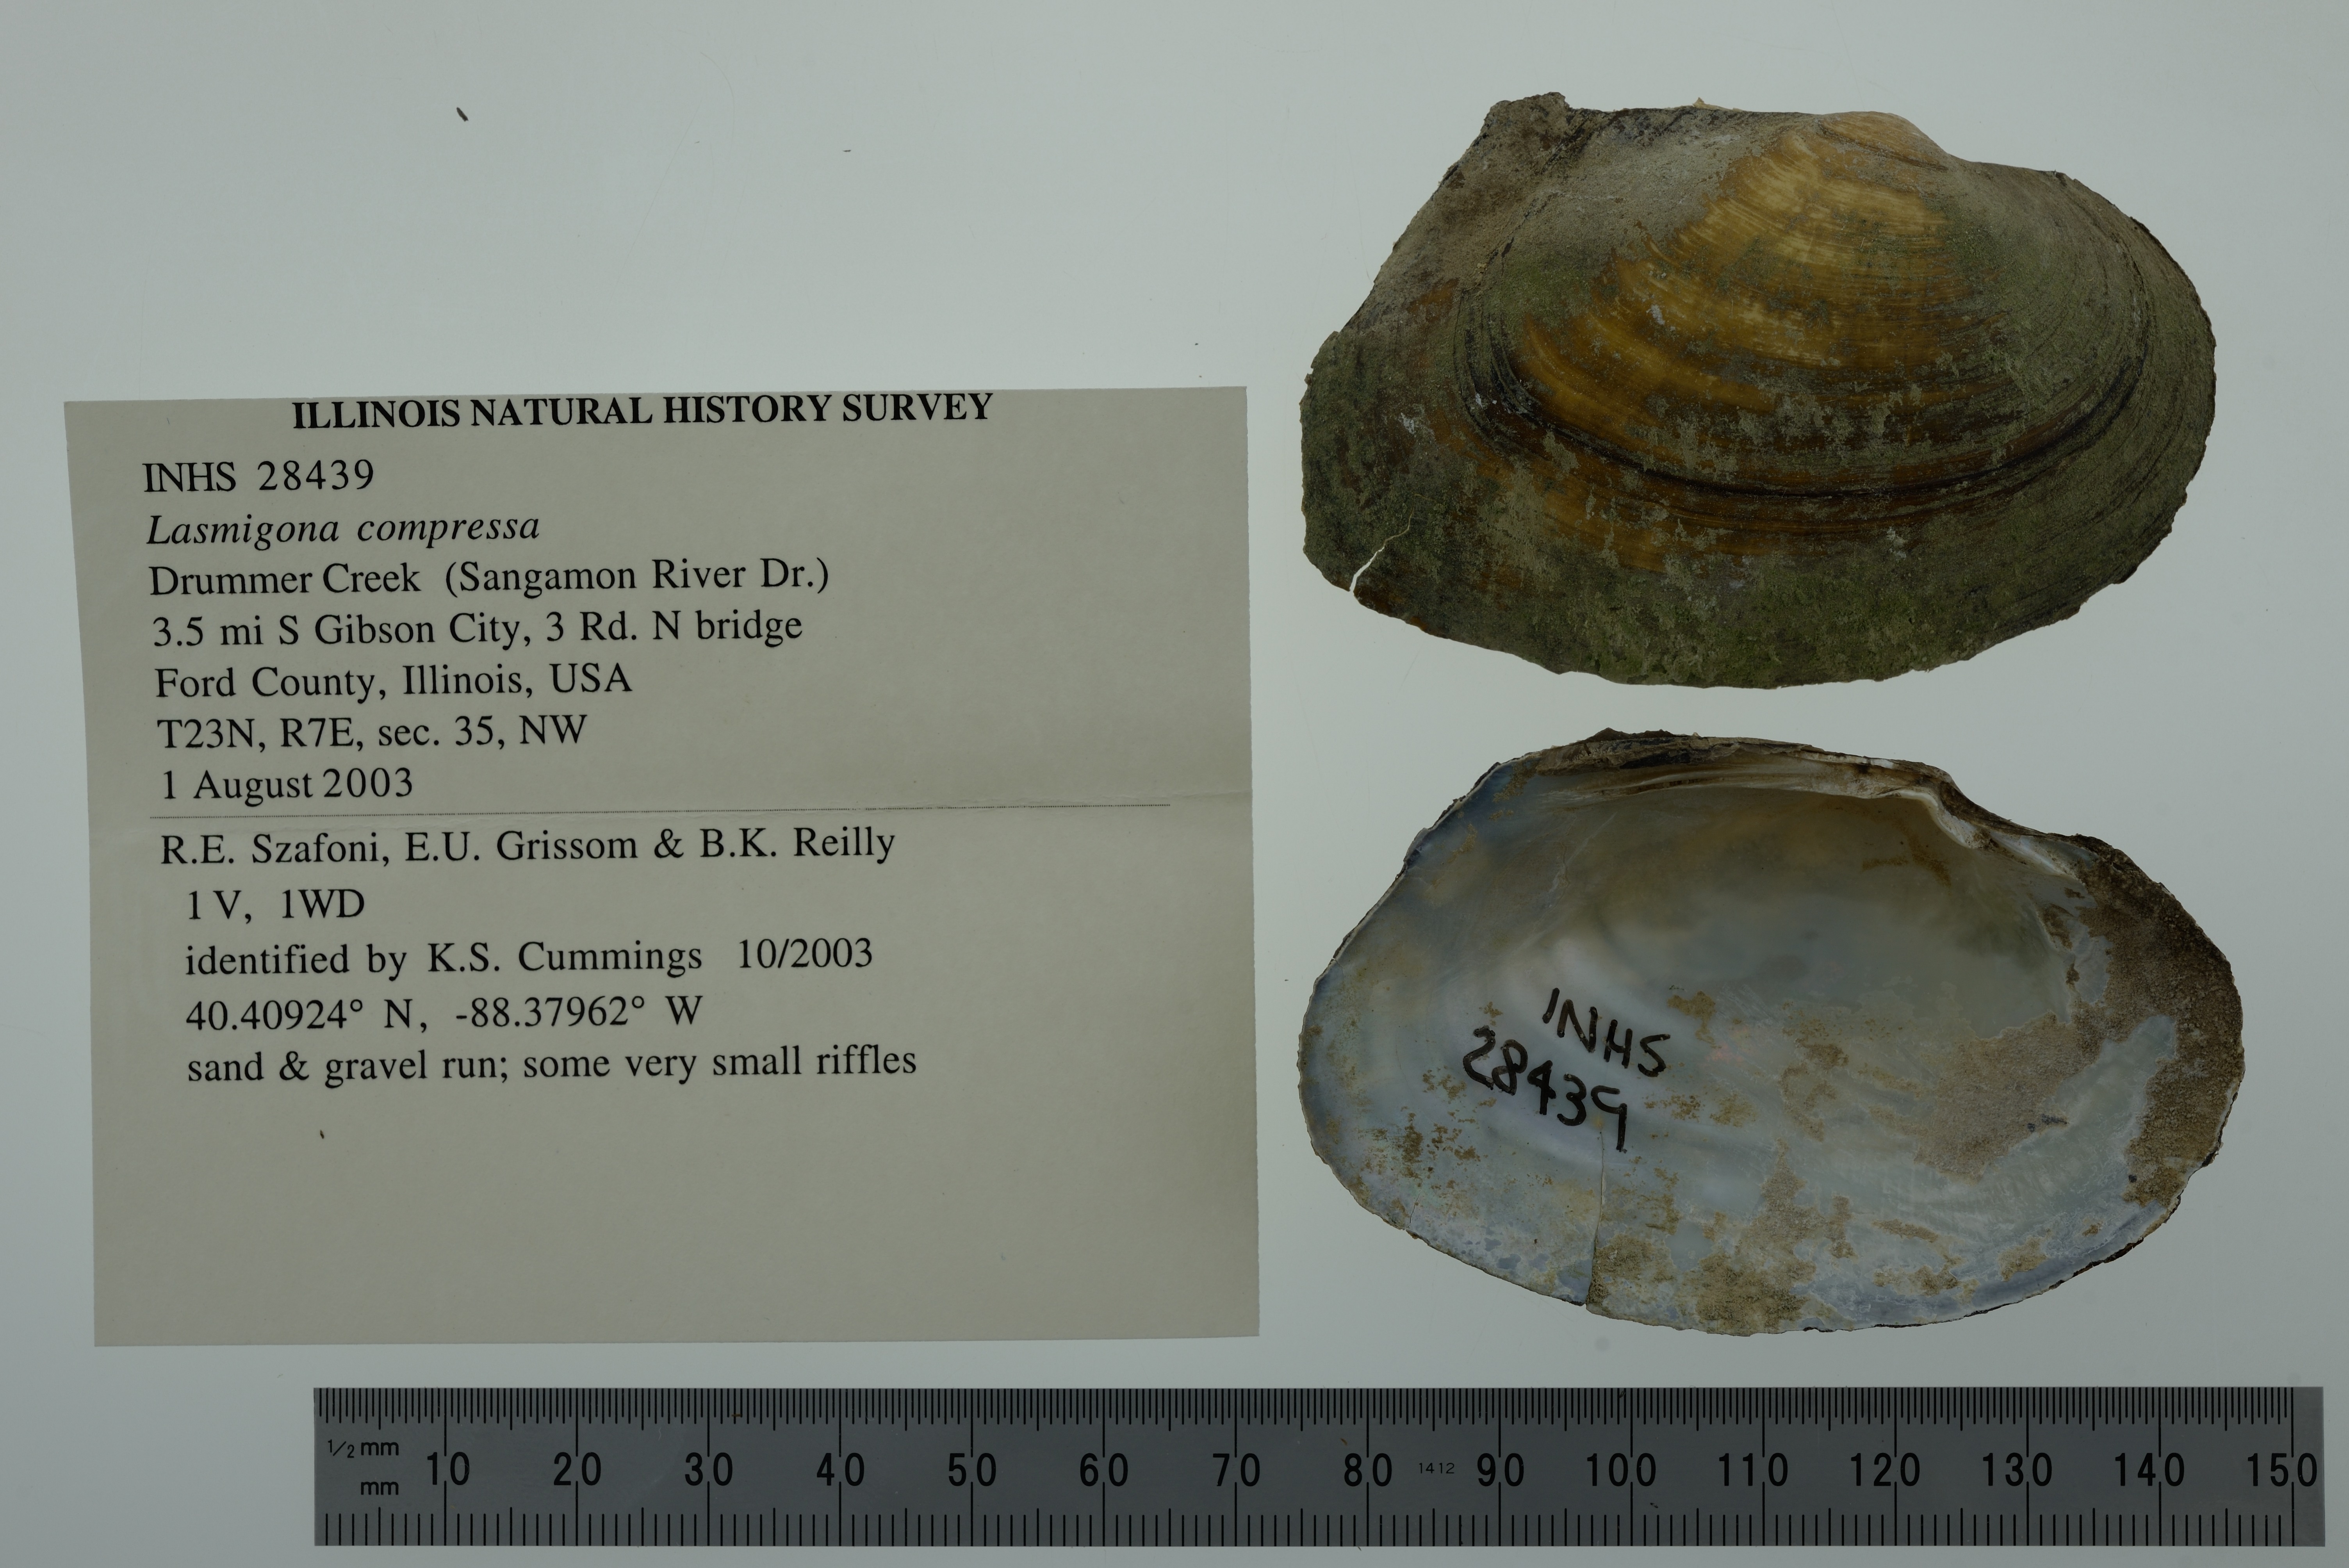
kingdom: Animalia
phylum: Mollusca
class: Bivalvia
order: Unionida
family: Unionidae
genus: Lasmigona
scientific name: Lasmigona compressa
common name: Creek heelsplitter
